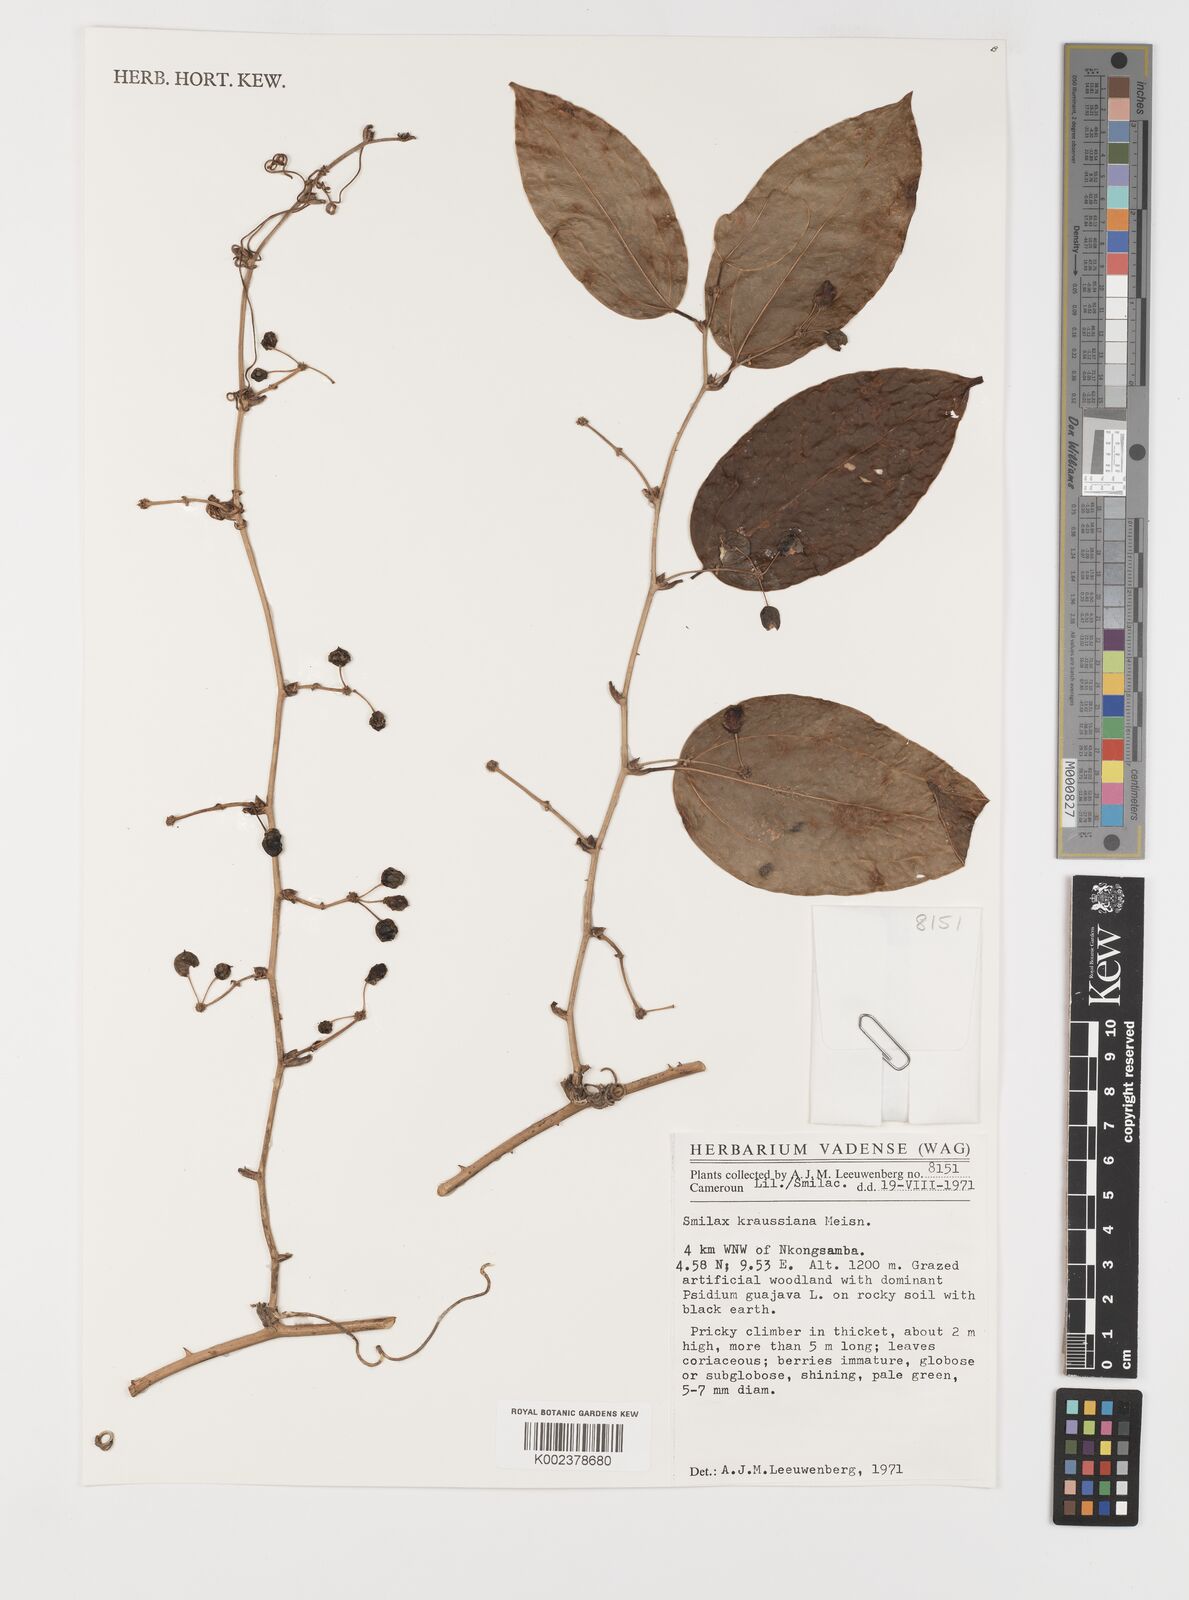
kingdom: Plantae
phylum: Tracheophyta
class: Liliopsida
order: Liliales
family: Smilacaceae
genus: Smilax
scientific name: Smilax anceps
